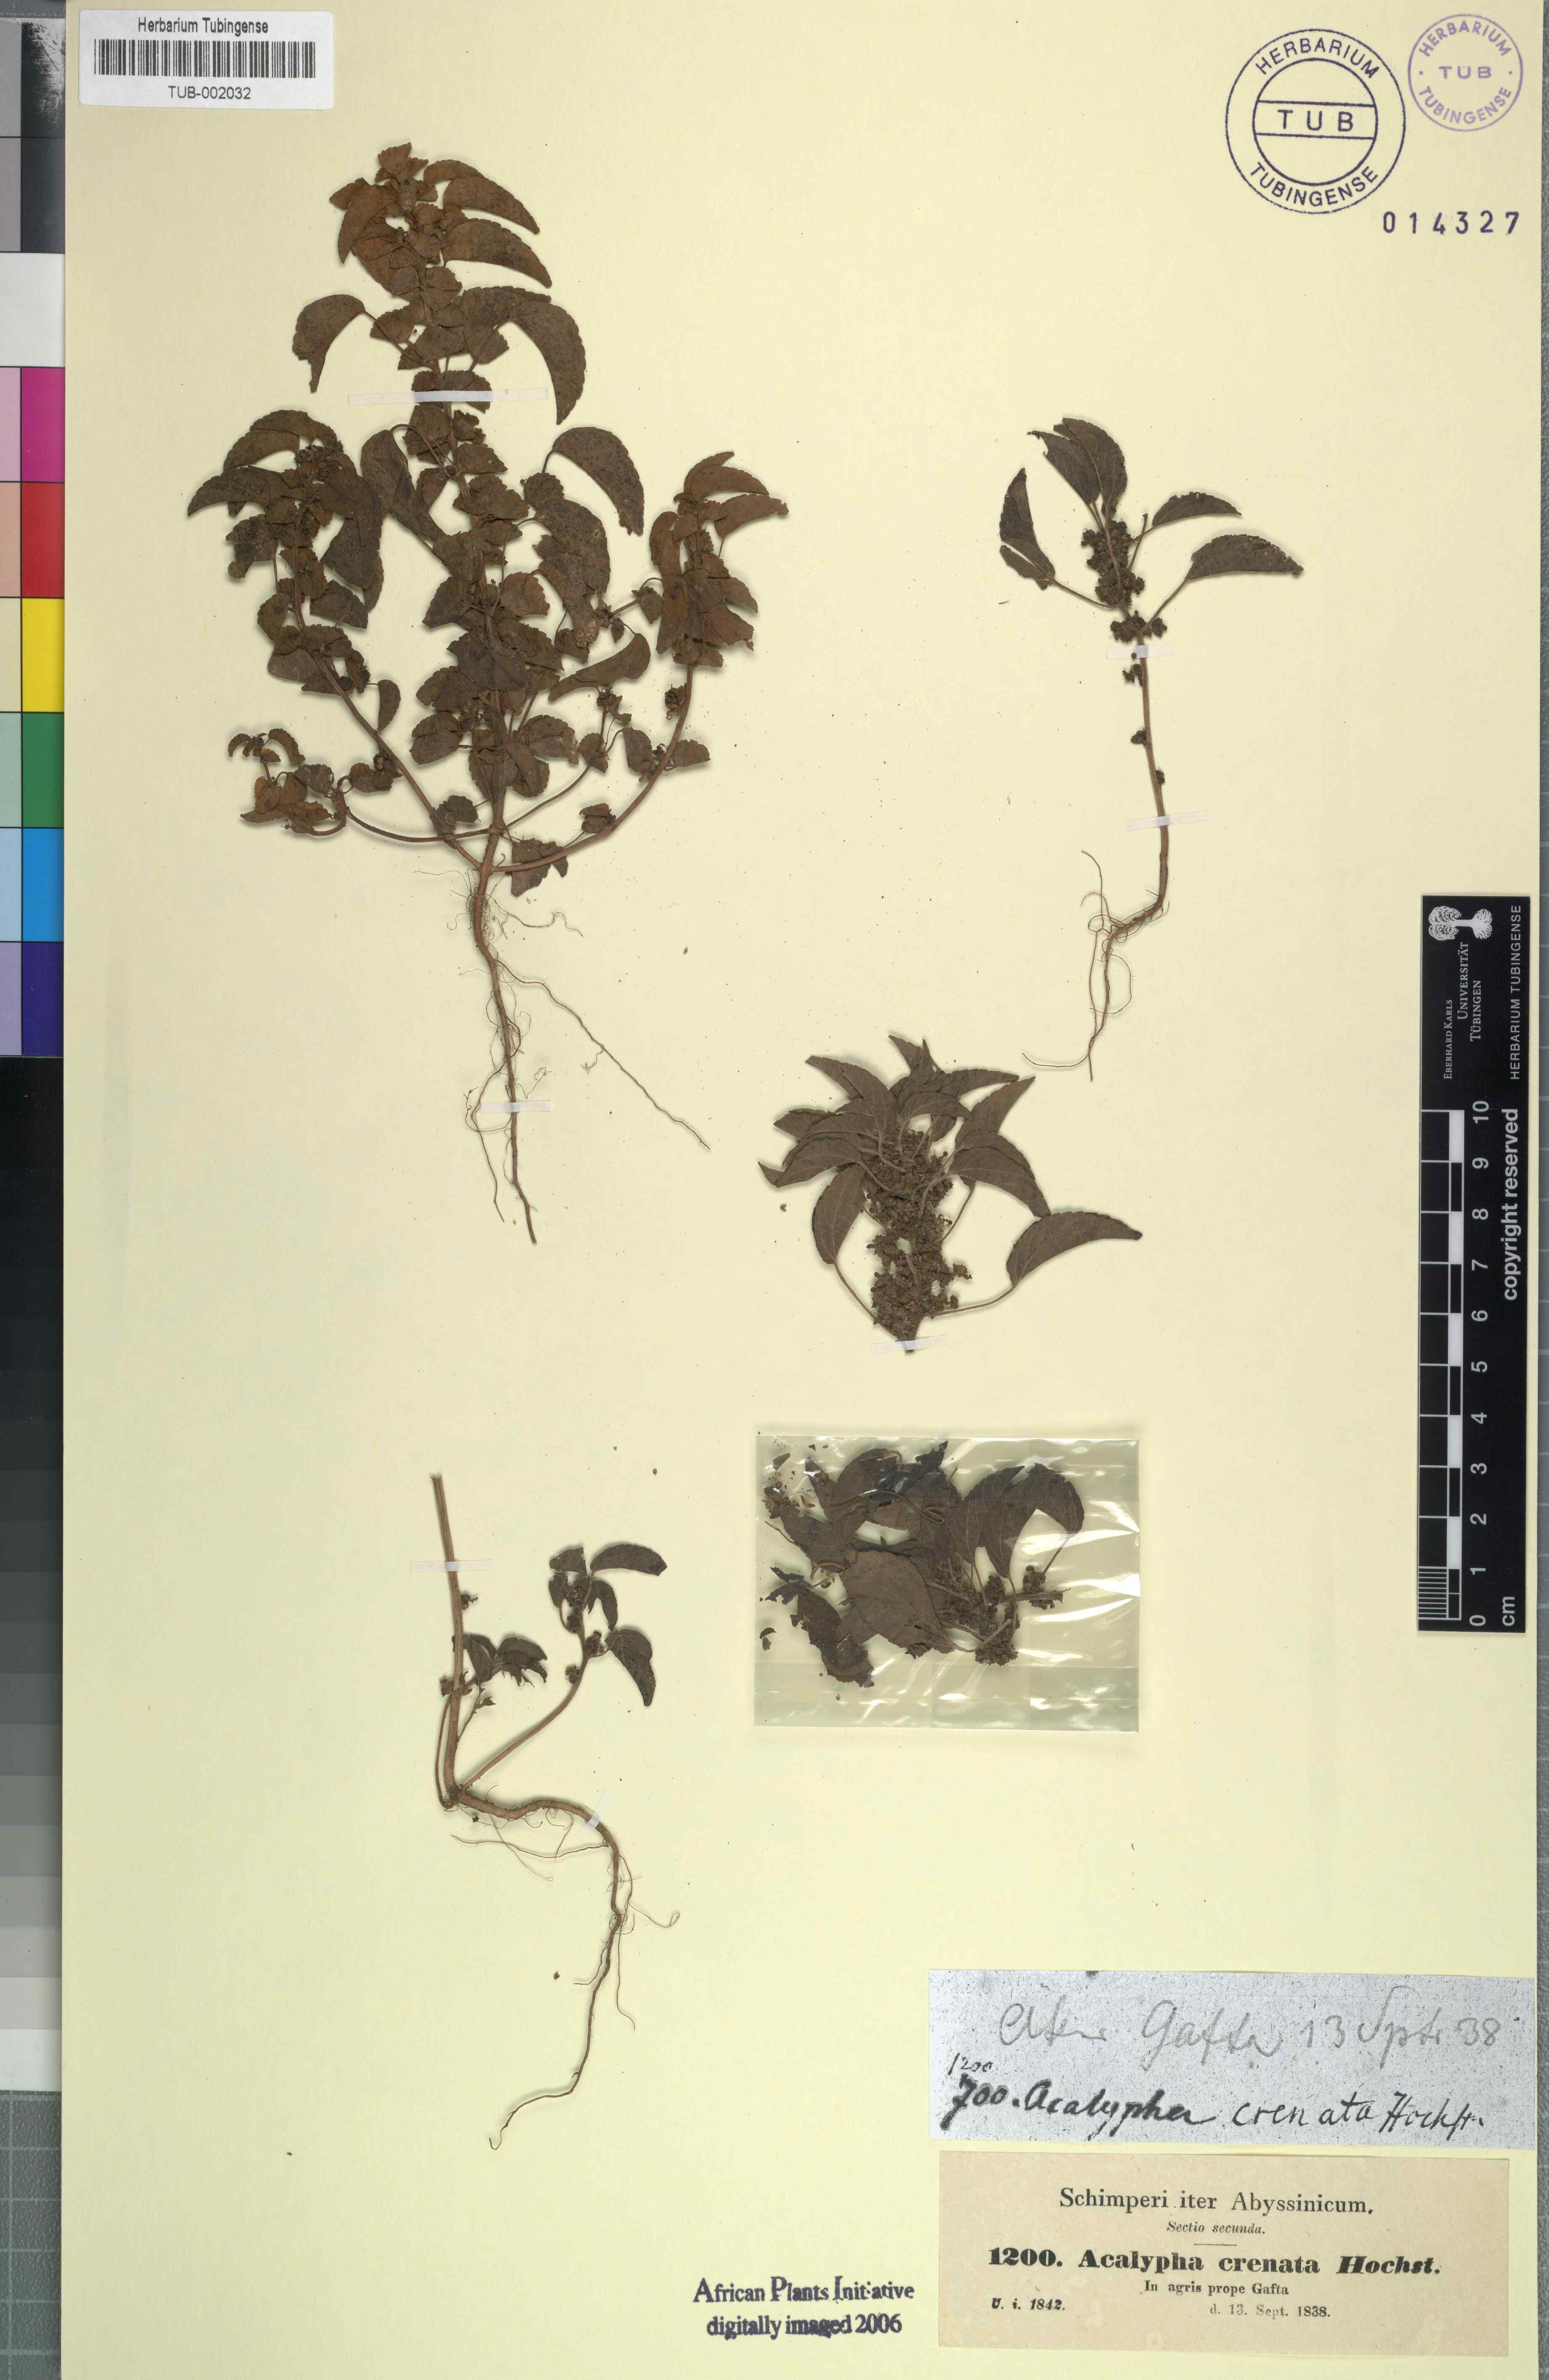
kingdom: Plantae
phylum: Tracheophyta
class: Magnoliopsida
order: Malpighiales
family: Euphorbiaceae
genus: Acalypha
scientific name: Acalypha crenata
